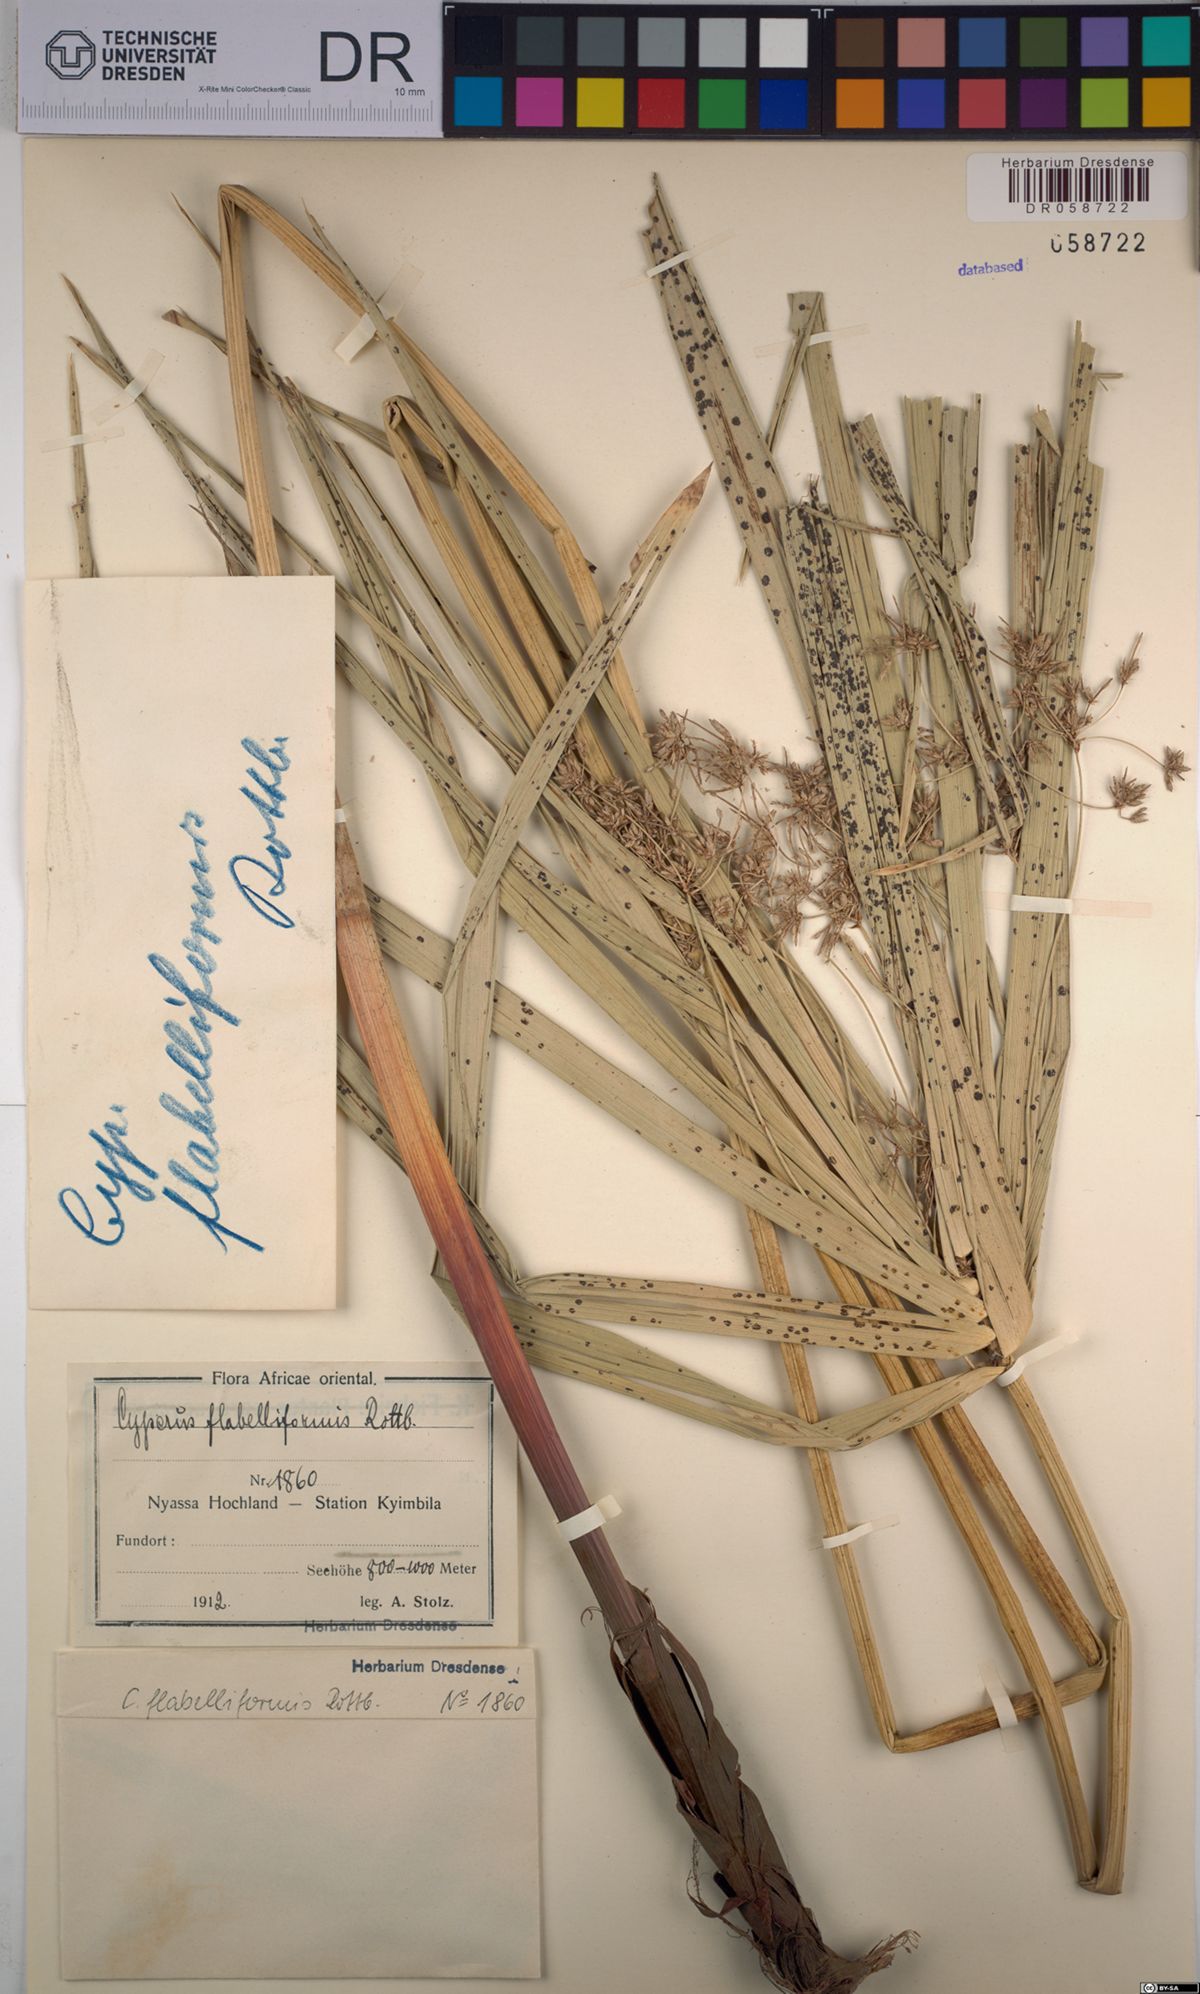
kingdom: Plantae
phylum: Tracheophyta
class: Liliopsida
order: Poales
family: Cyperaceae
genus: Cyperus
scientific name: Cyperus alternifolius
